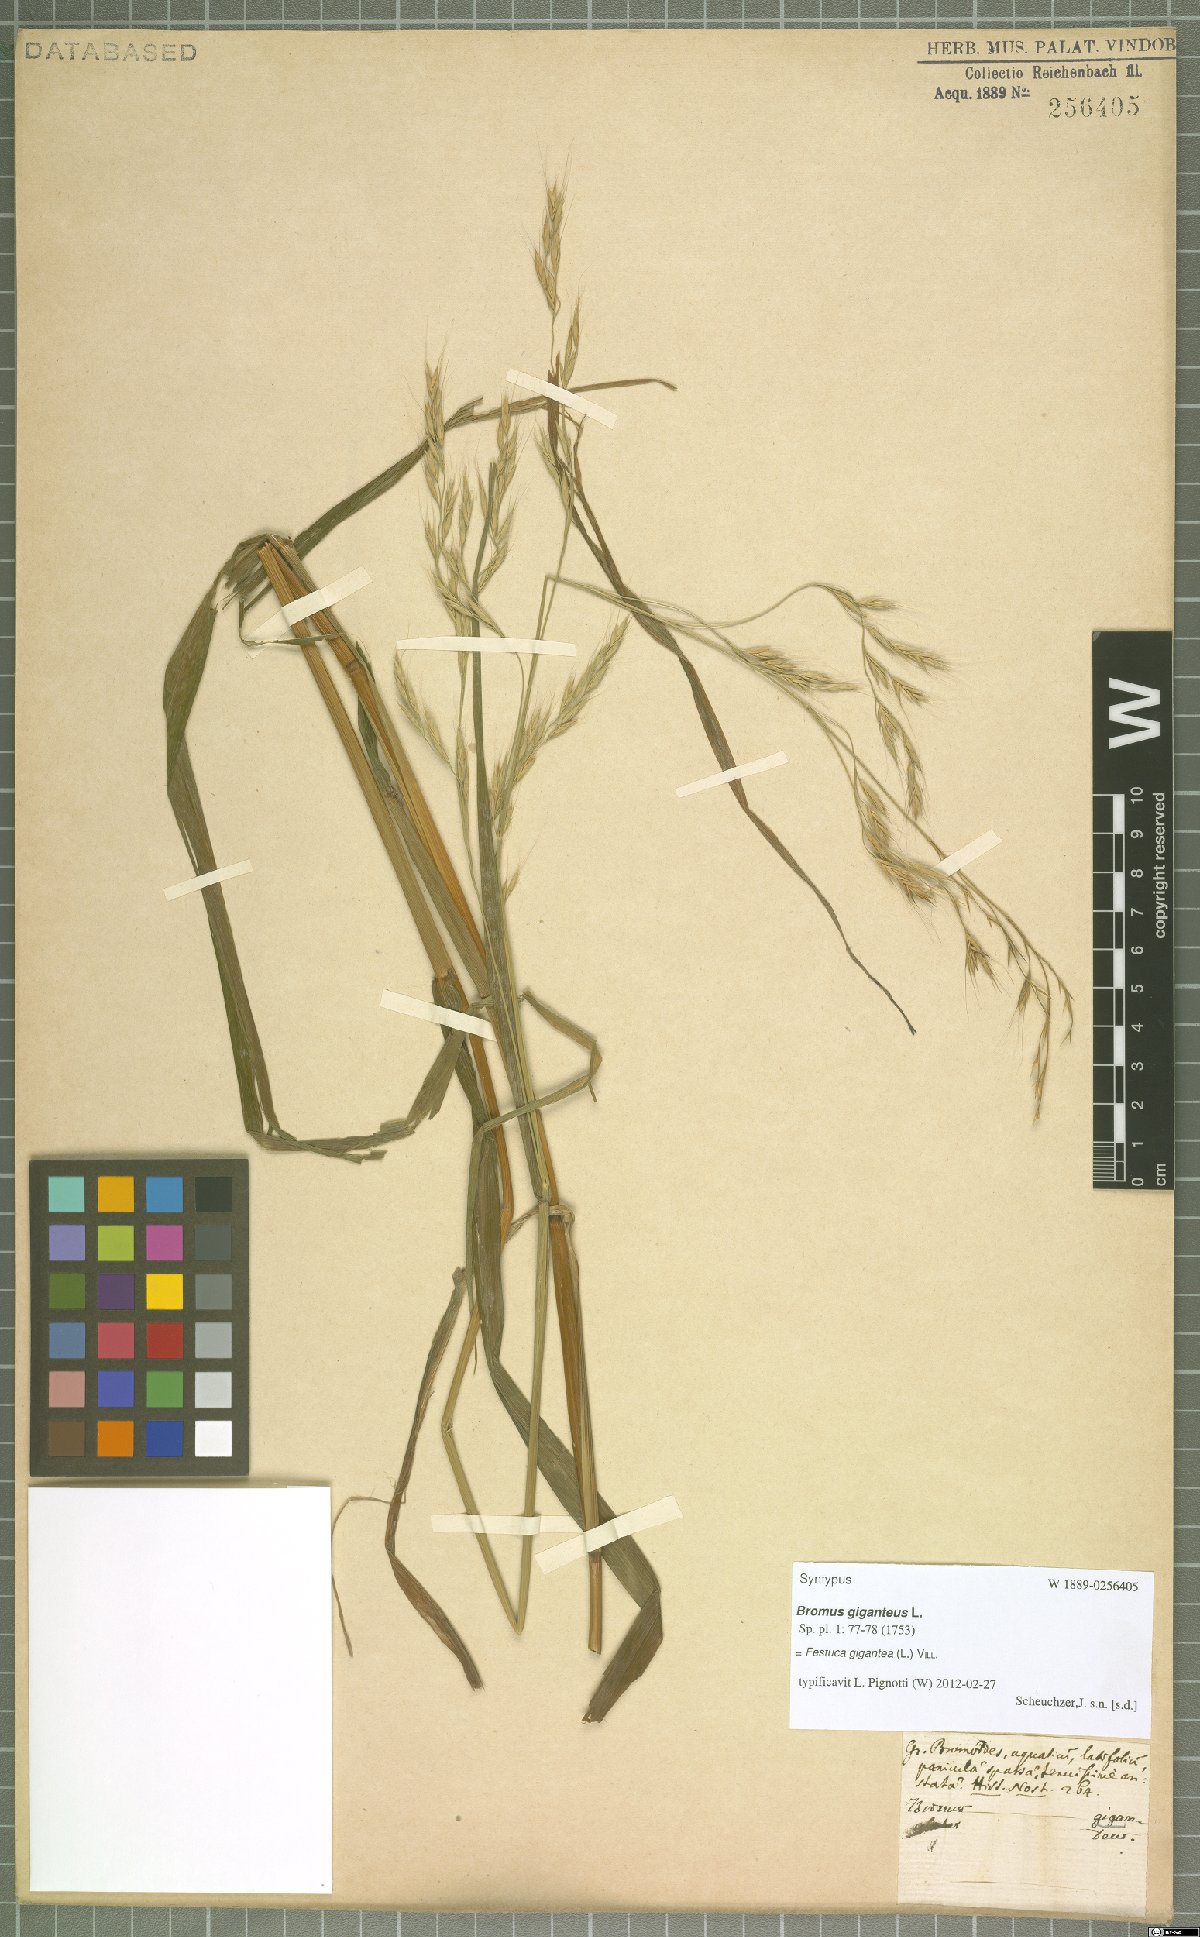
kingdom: Plantae
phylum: Tracheophyta
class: Liliopsida
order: Poales
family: Poaceae
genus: Lolium
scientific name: Lolium giganteum
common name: Giant fescue
